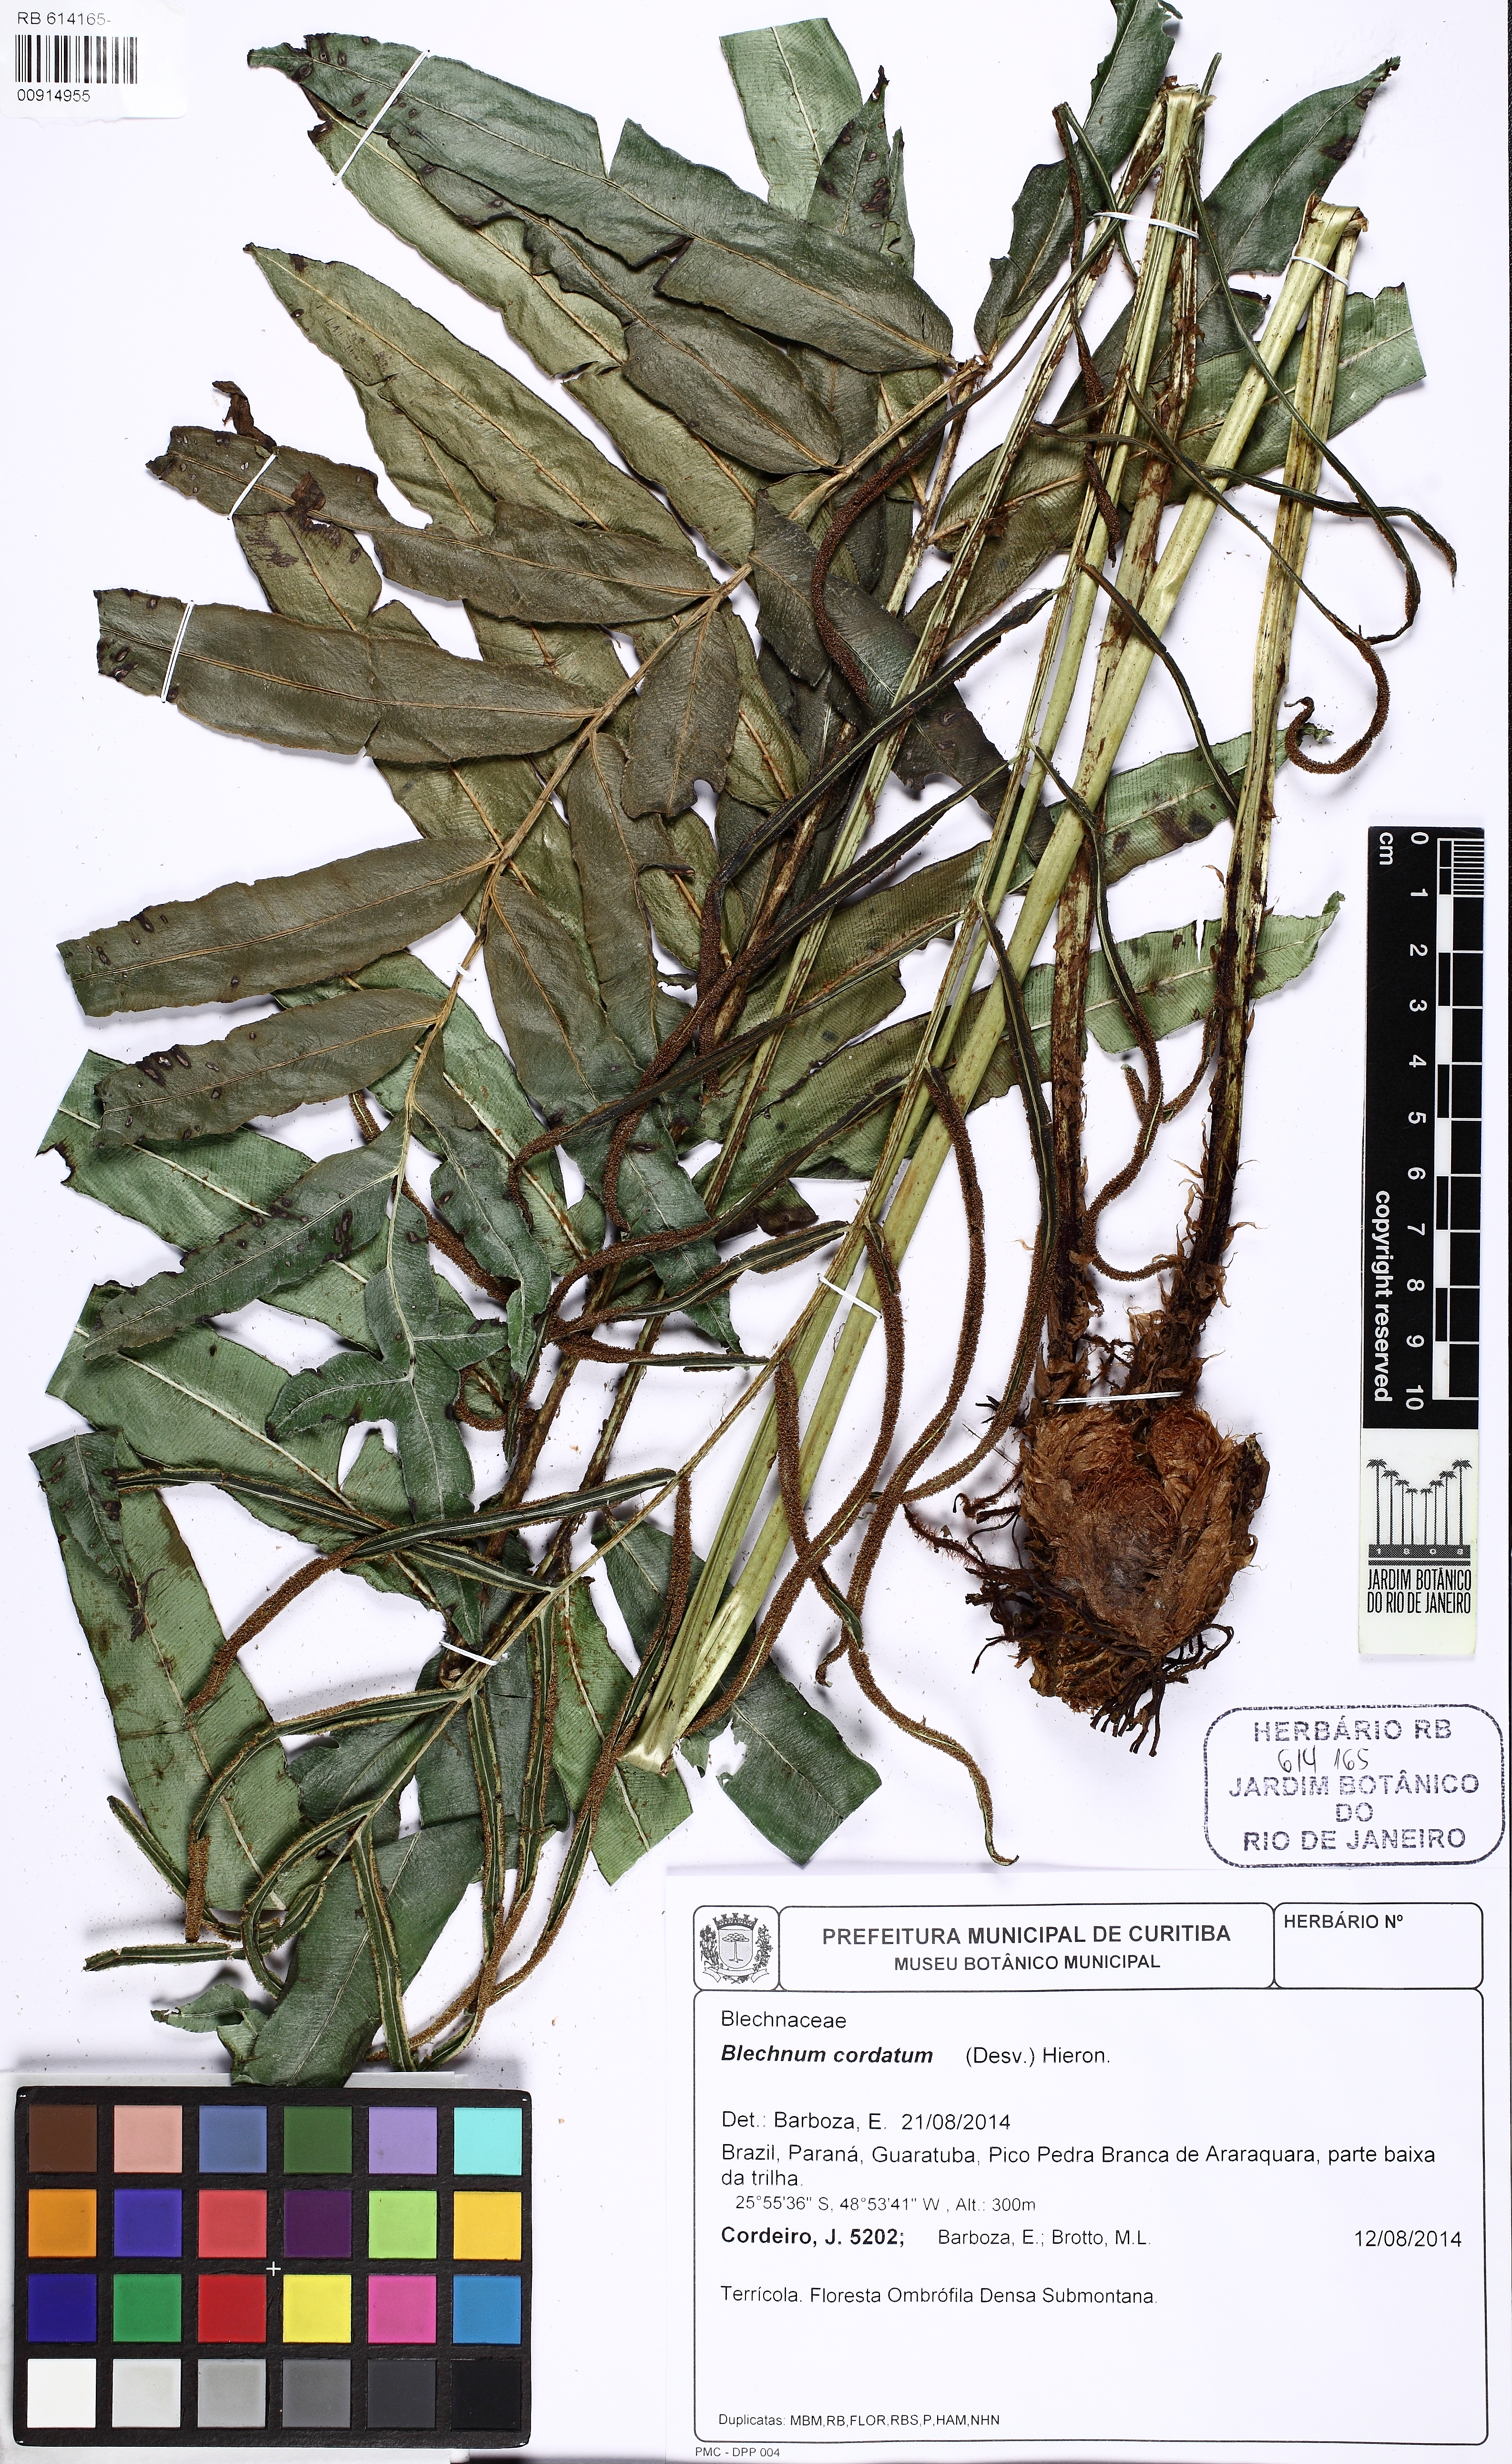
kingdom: Plantae
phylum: Tracheophyta
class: Polypodiopsida
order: Polypodiales
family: Blechnaceae
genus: Parablechnum
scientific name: Parablechnum cordatum
